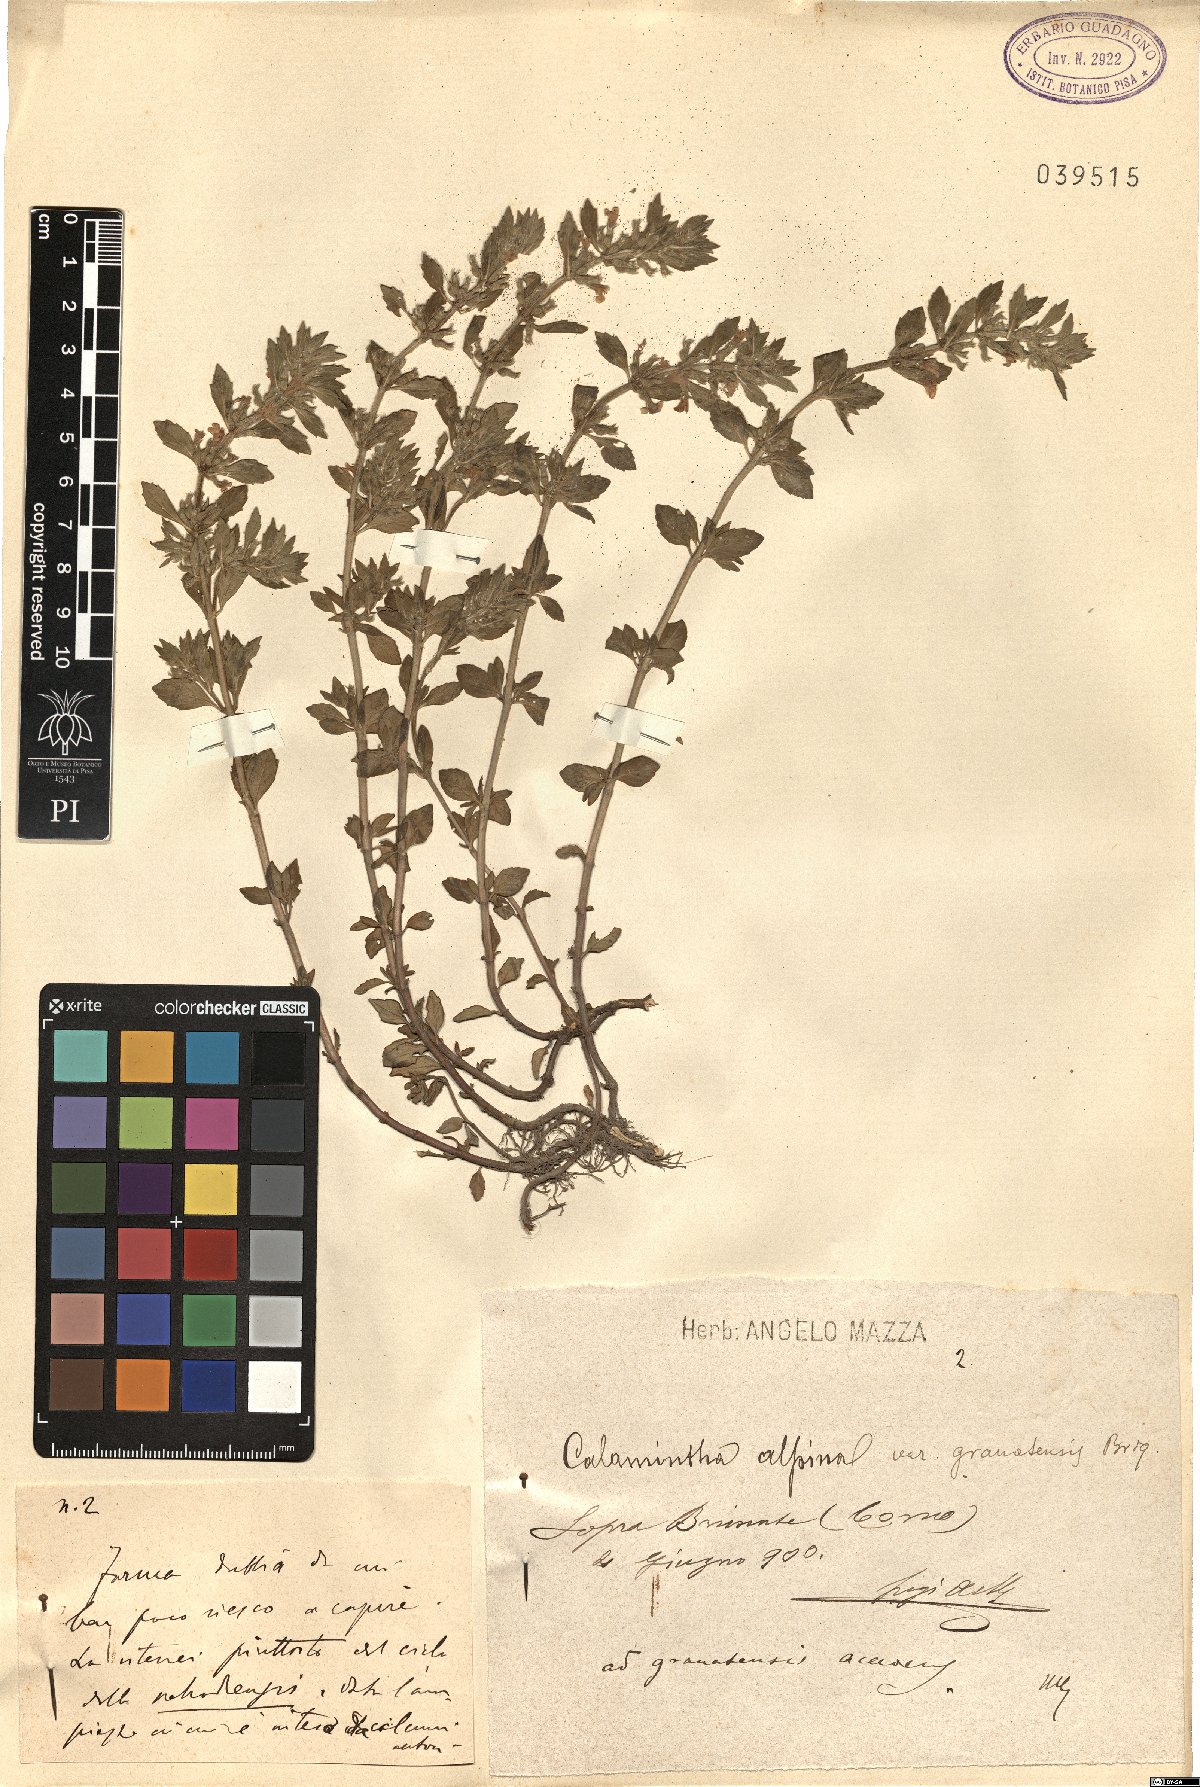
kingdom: Plantae
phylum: Tracheophyta
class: Magnoliopsida
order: Lamiales
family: Lamiaceae
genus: Clinopodium
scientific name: Clinopodium alpinum
